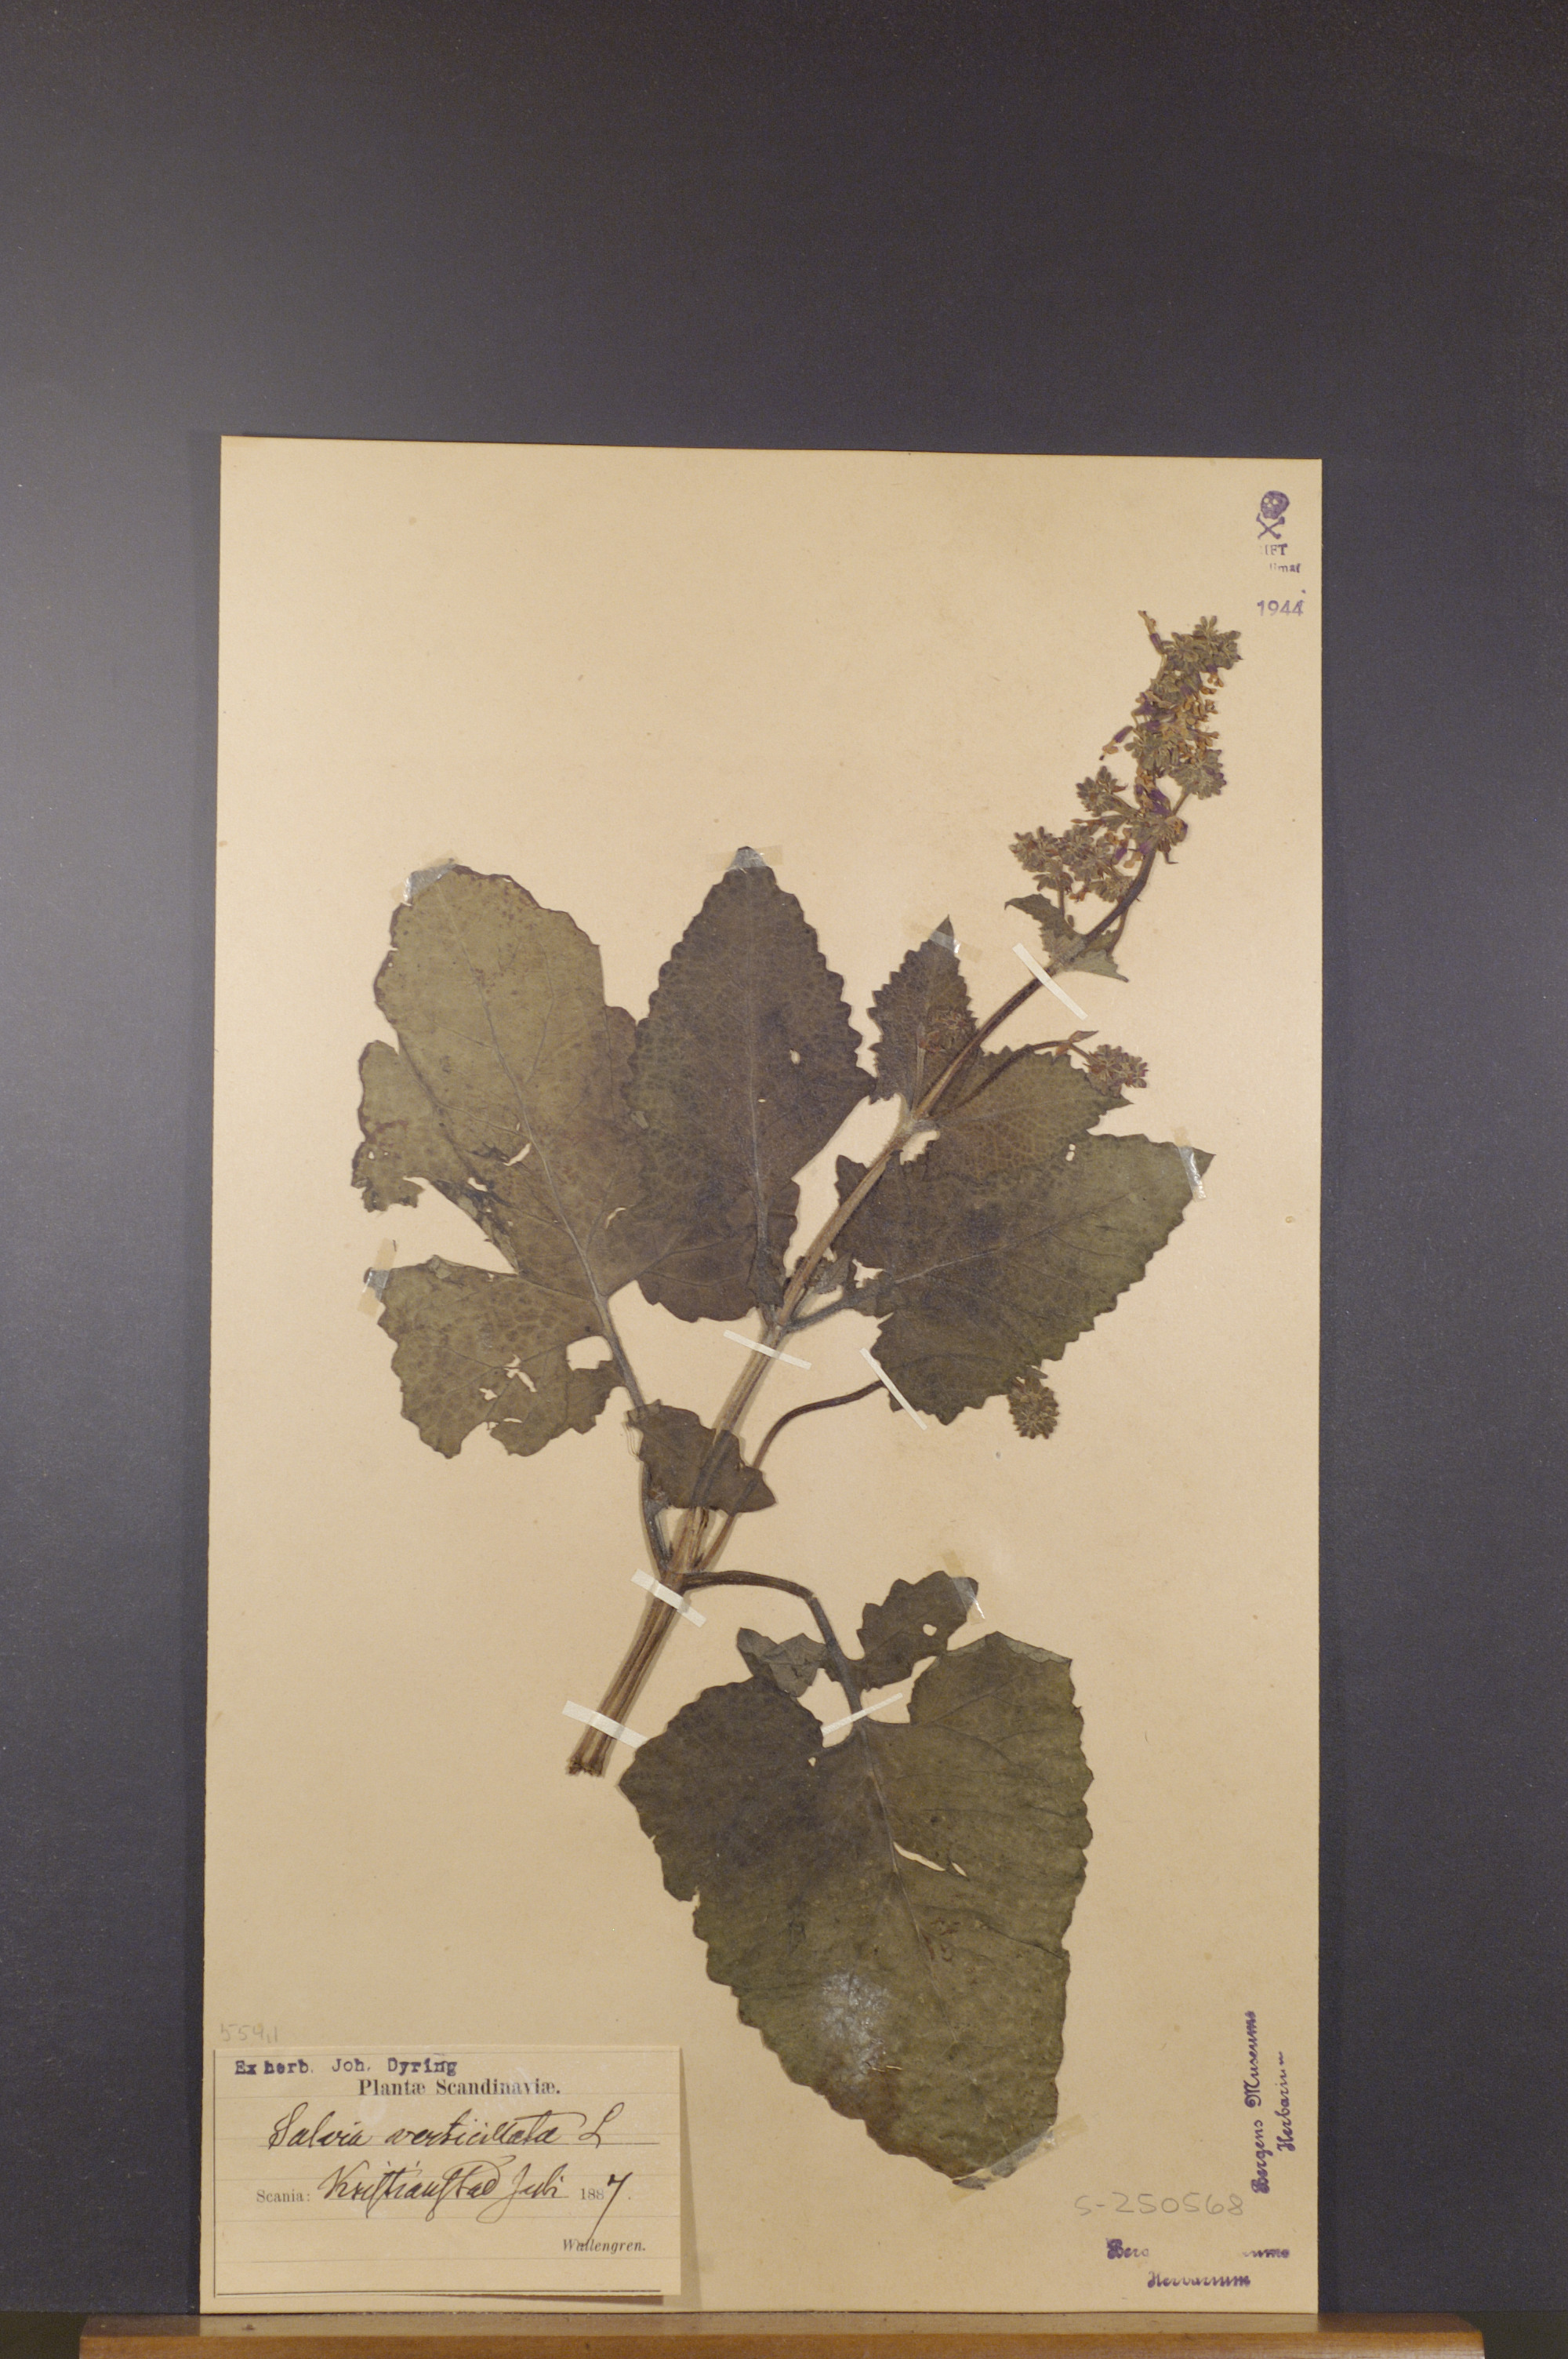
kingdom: Plantae
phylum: Tracheophyta
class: Magnoliopsida
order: Lamiales
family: Lamiaceae
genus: Salvia
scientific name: Salvia verticillata
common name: Whorled clary
